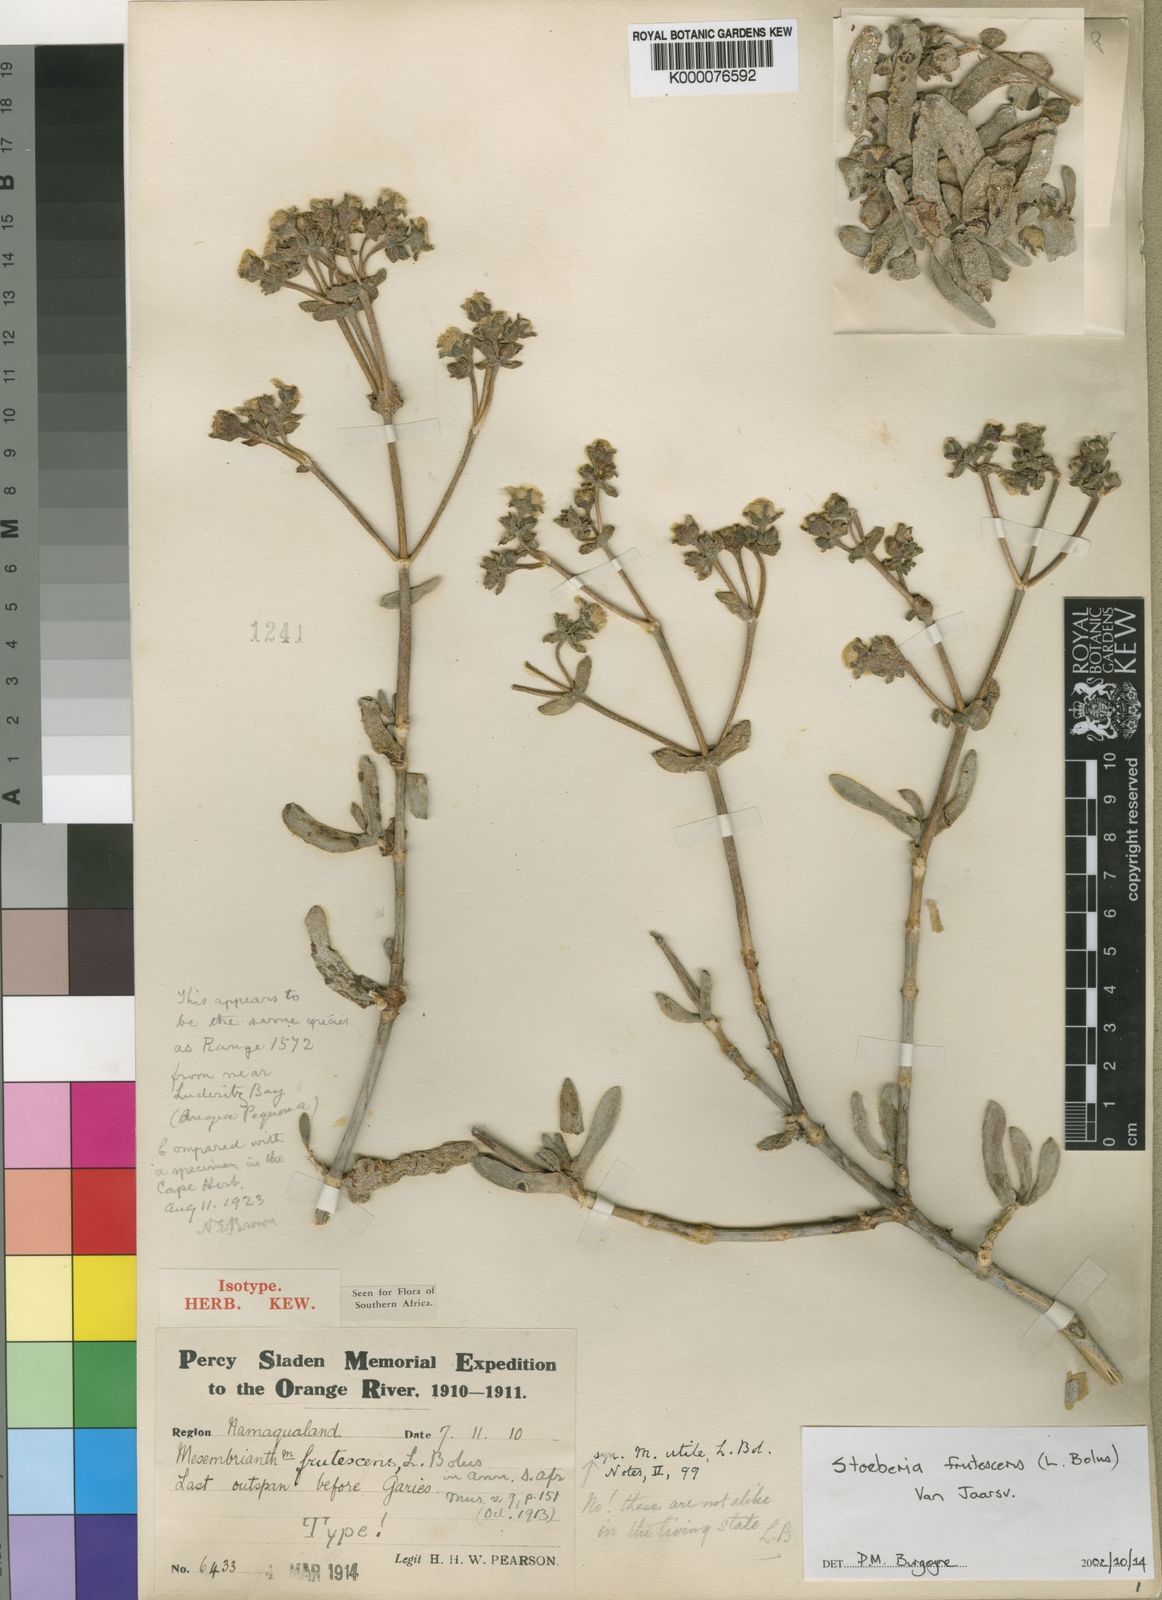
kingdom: Plantae
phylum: Tracheophyta
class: Magnoliopsida
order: Caryophyllales
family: Aizoaceae
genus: Stoeberia
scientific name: Stoeberia frutescens
